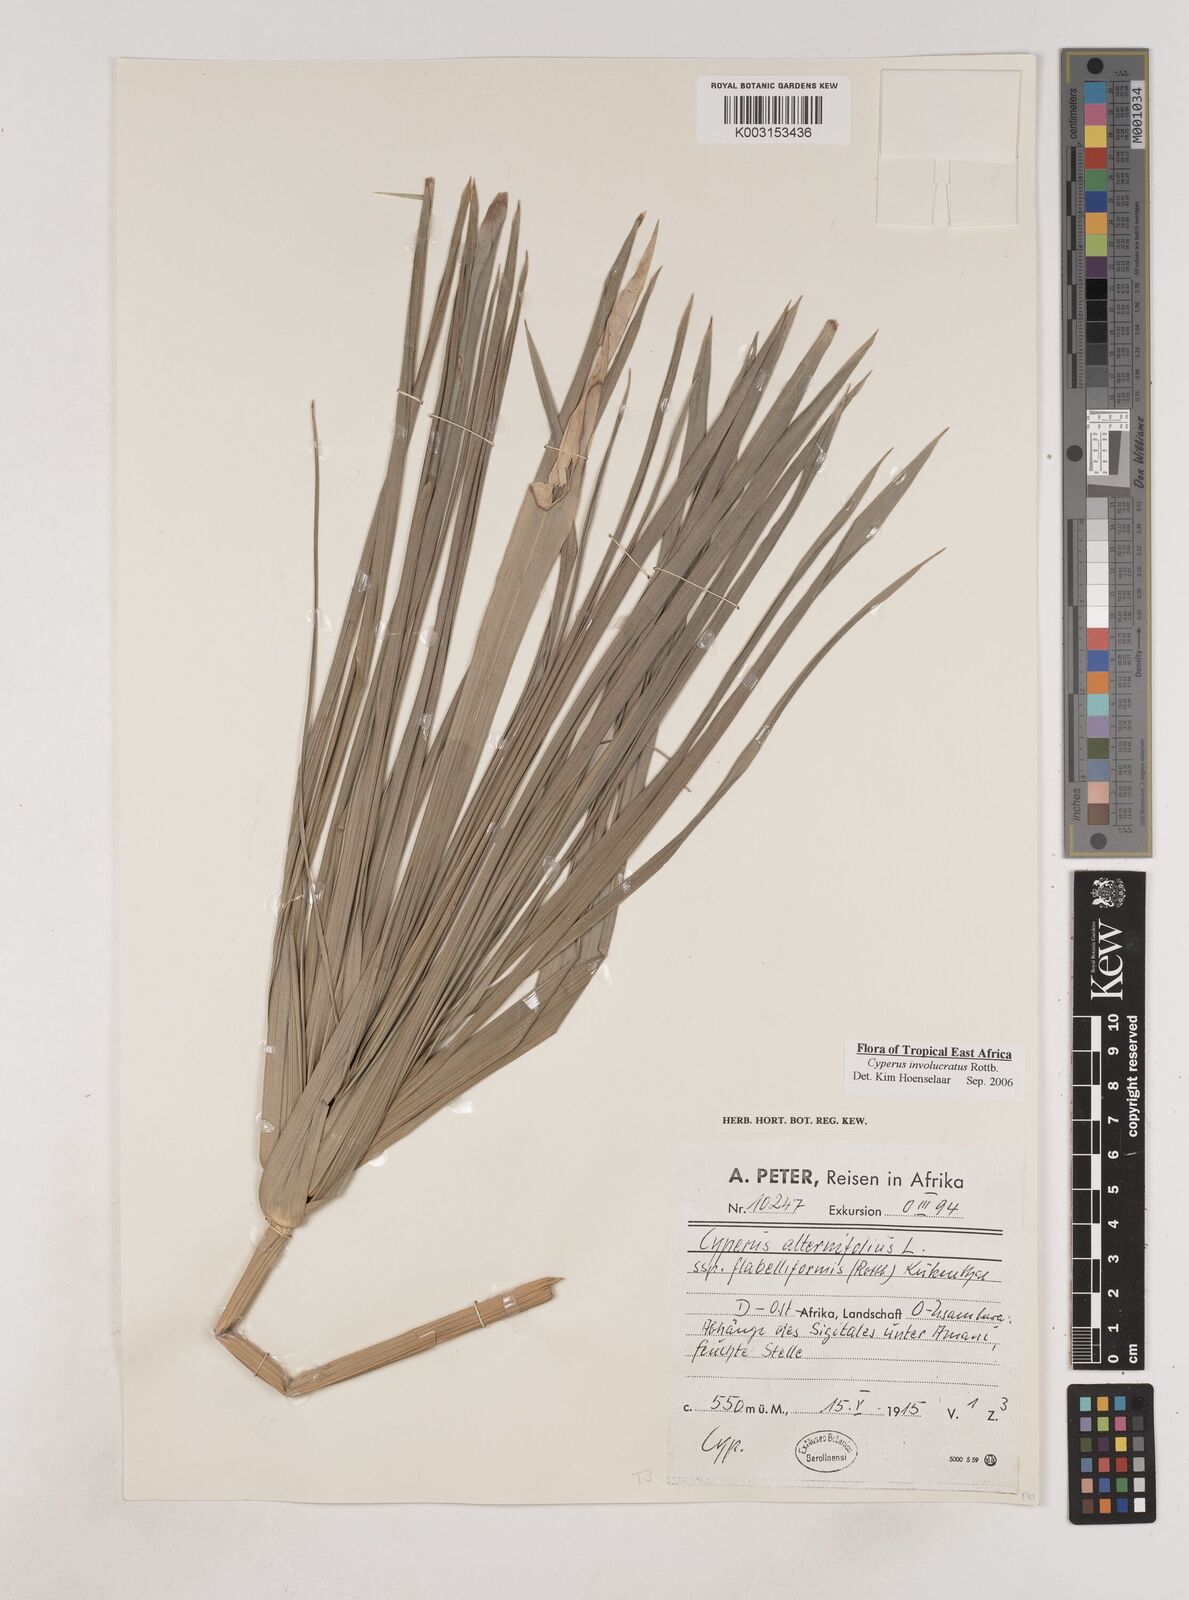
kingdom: Plantae
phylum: Tracheophyta
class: Liliopsida
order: Poales
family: Cyperaceae
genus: Cyperus
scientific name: Cyperus
